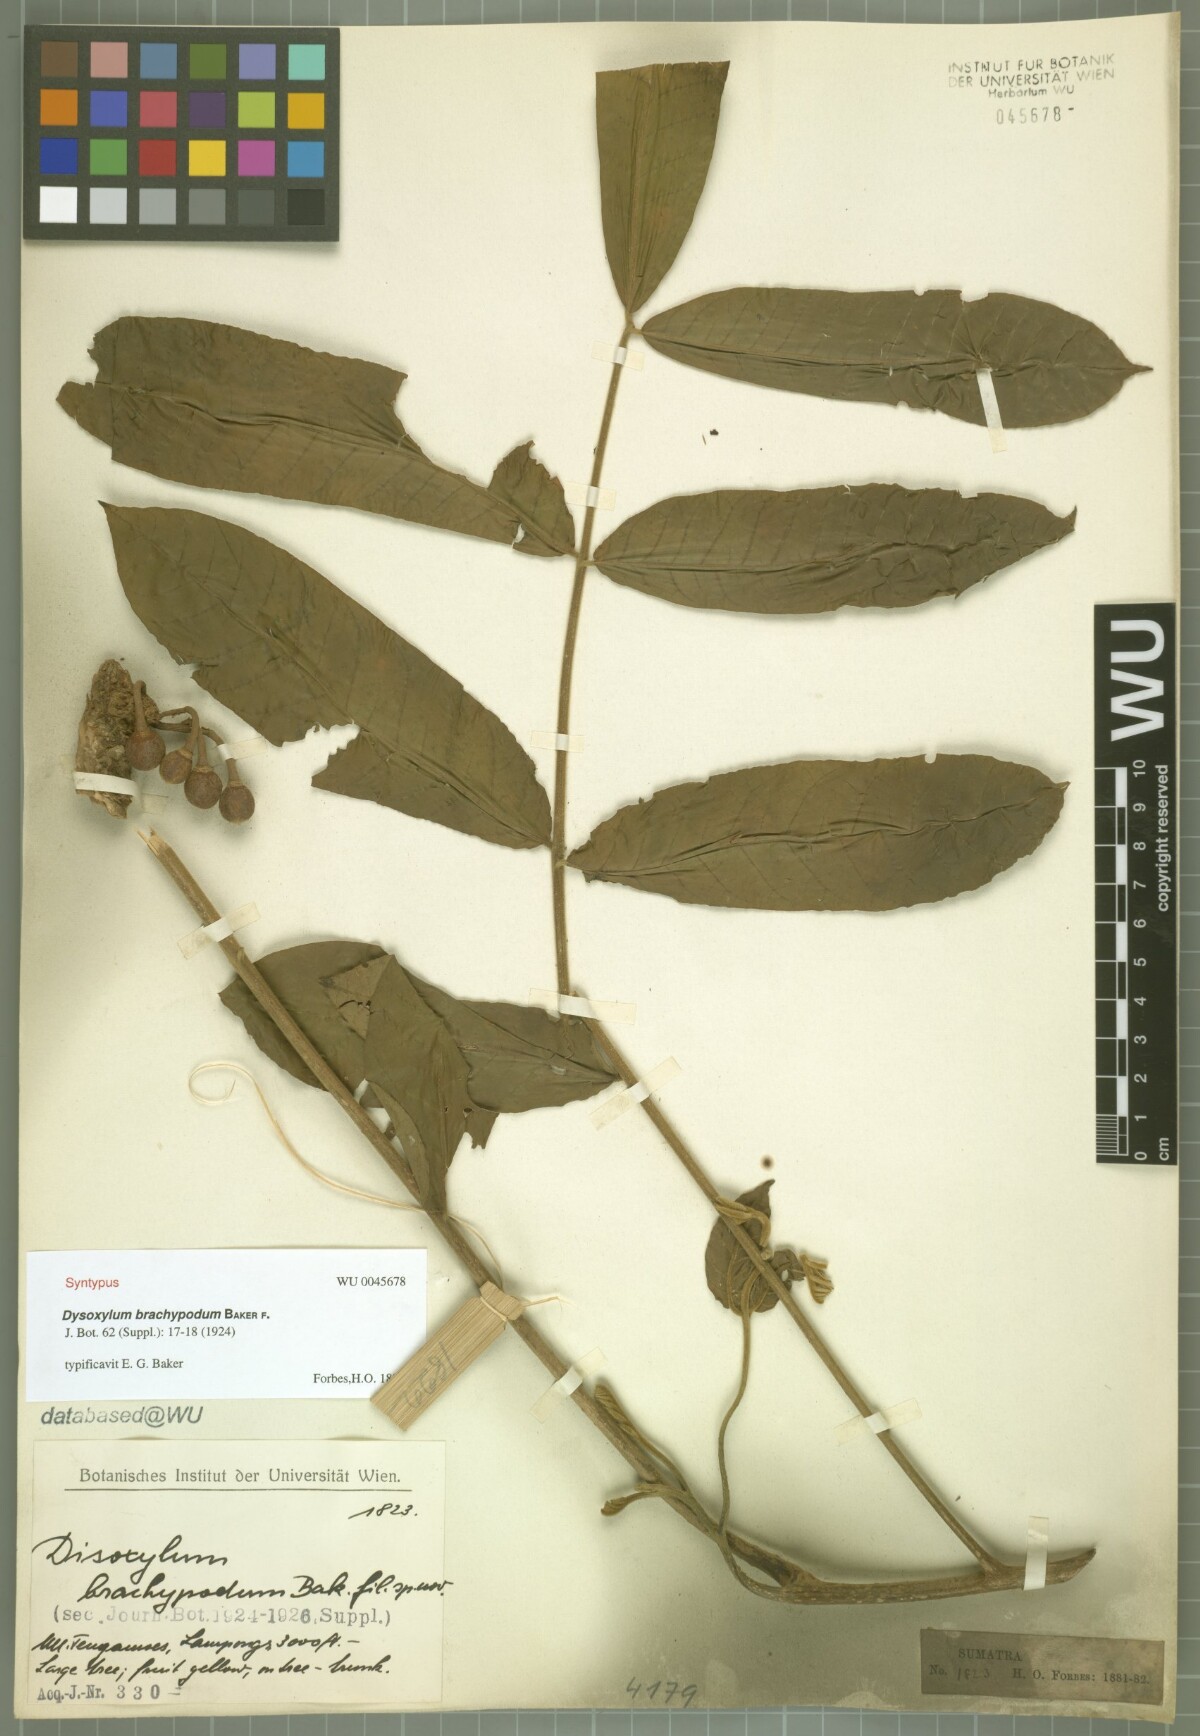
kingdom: Plantae
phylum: Tracheophyta
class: Magnoliopsida
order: Sapindales
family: Meliaceae
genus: Epicharis
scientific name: Epicharis parasitica
